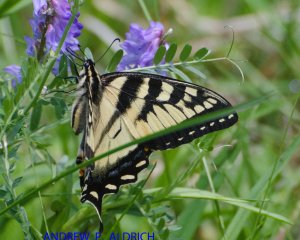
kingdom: Animalia
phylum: Arthropoda
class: Insecta
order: Lepidoptera
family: Papilionidae
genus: Pterourus
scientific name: Pterourus canadensis
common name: Canadian Tiger Swallowtail
